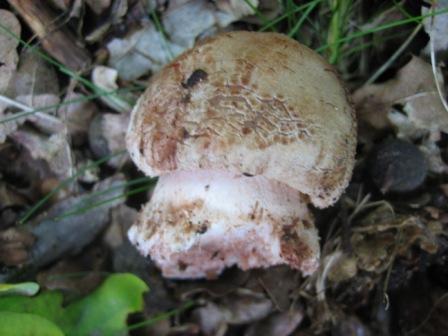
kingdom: Fungi
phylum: Basidiomycota
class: Agaricomycetes
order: Agaricales
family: Amanitaceae
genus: Amanita
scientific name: Amanita rubescens
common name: rødmende fluesvamp
